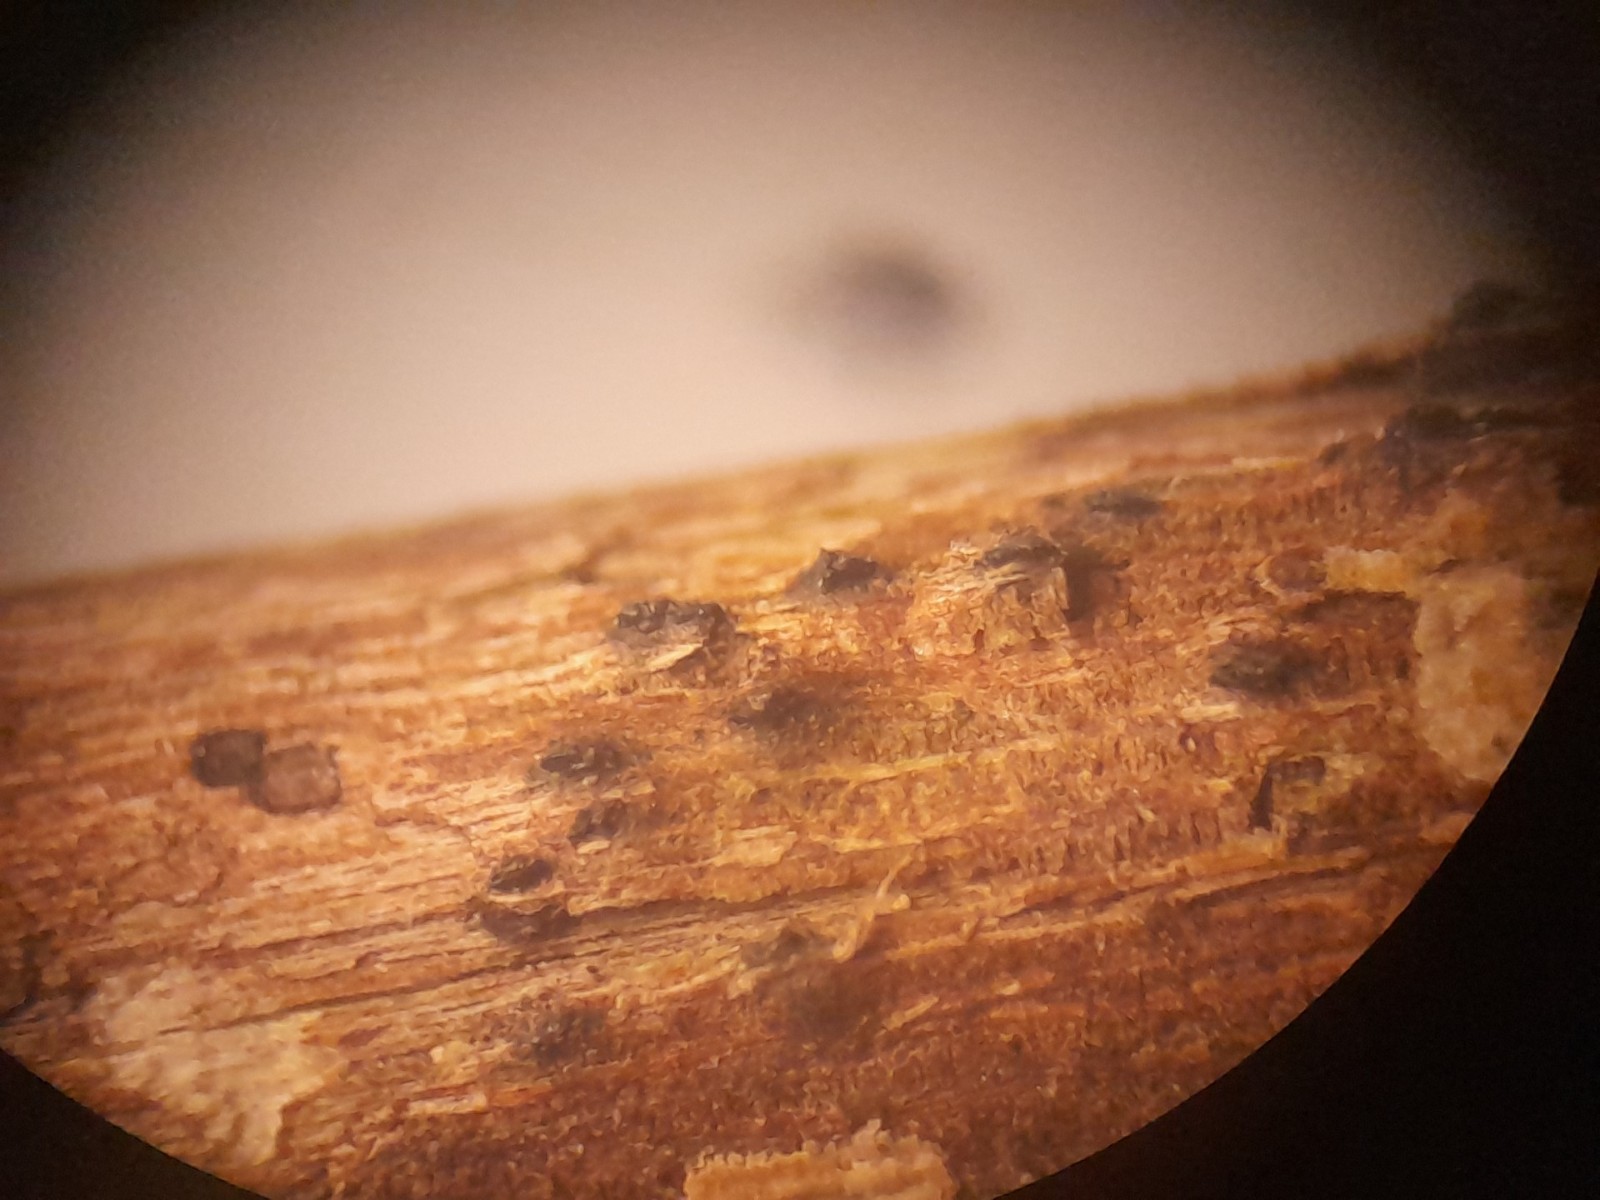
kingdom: Fungi
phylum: Ascomycota
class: Dothideomycetes
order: Pleosporales
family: Lophiostomataceae
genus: Lophiostoma
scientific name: Lophiostoma compressum
